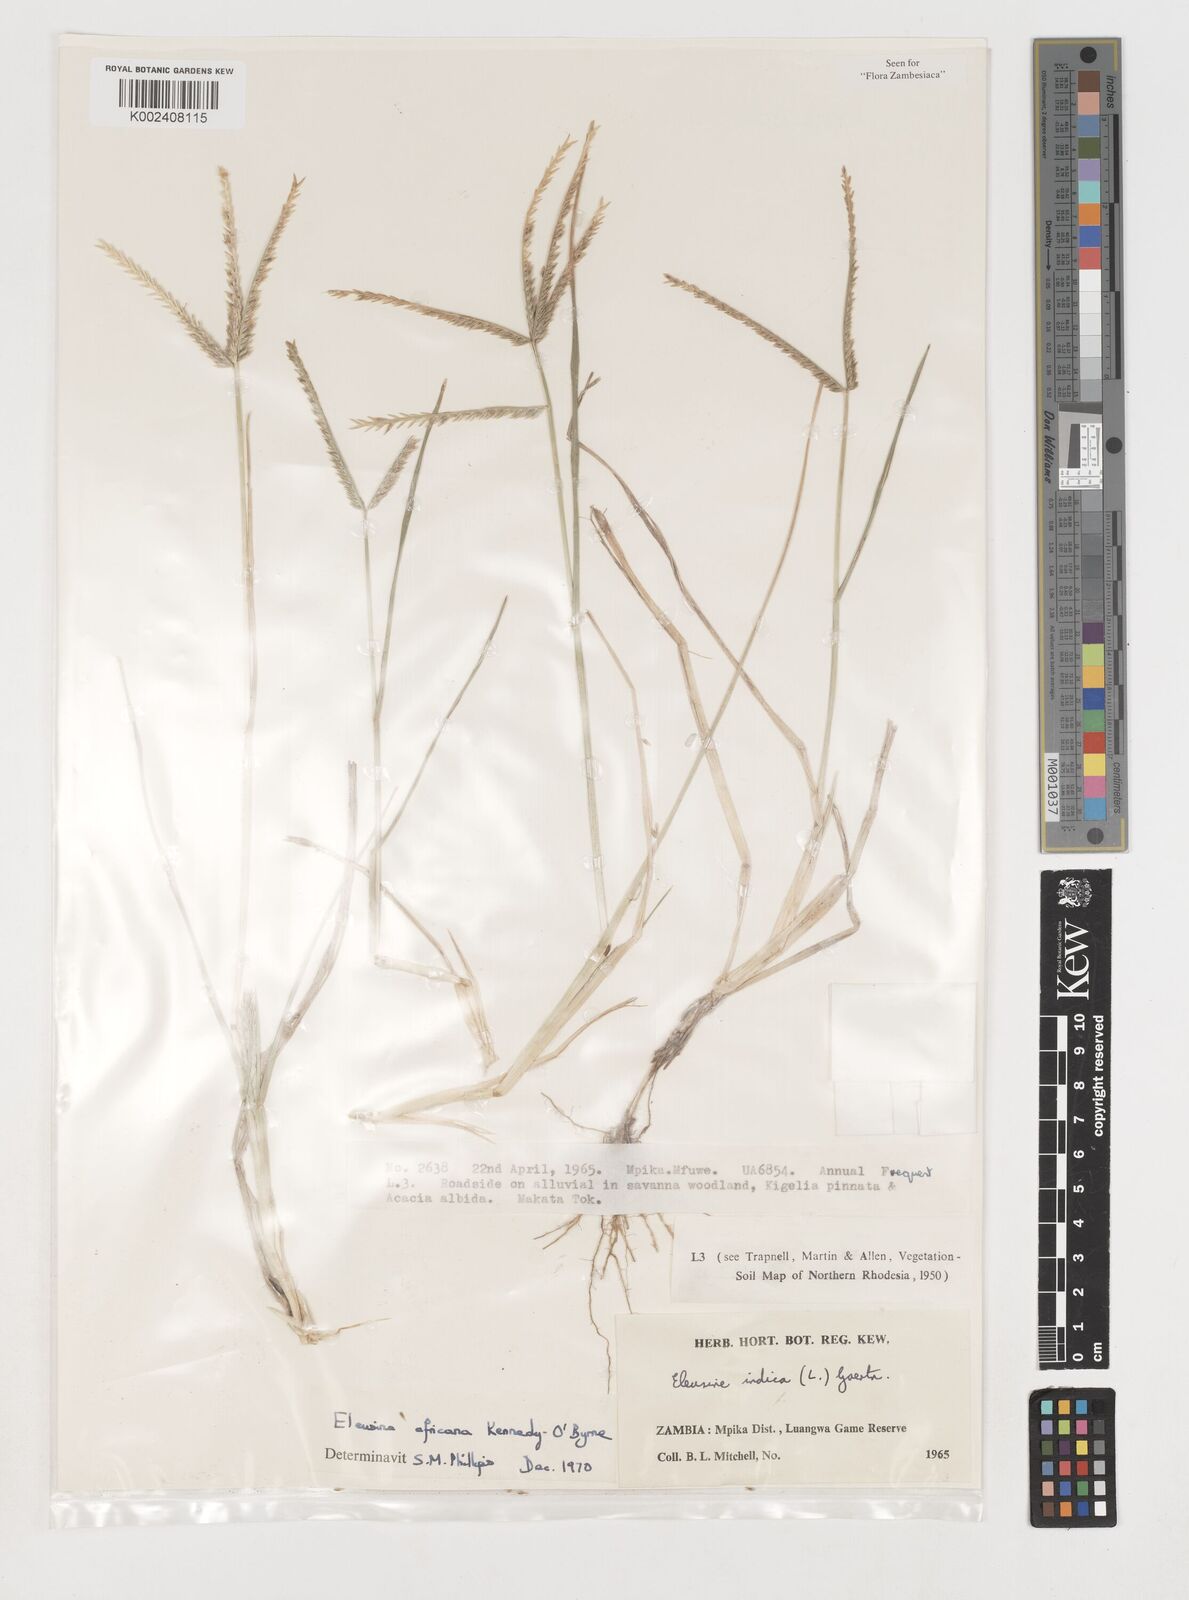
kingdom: Plantae
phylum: Tracheophyta
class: Liliopsida
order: Poales
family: Poaceae
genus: Eleusine
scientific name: Eleusine africana
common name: Wild african finger millet
